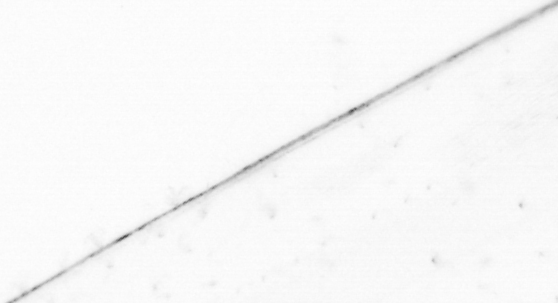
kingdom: Animalia
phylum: Chaetognatha
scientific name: Chaetognatha
